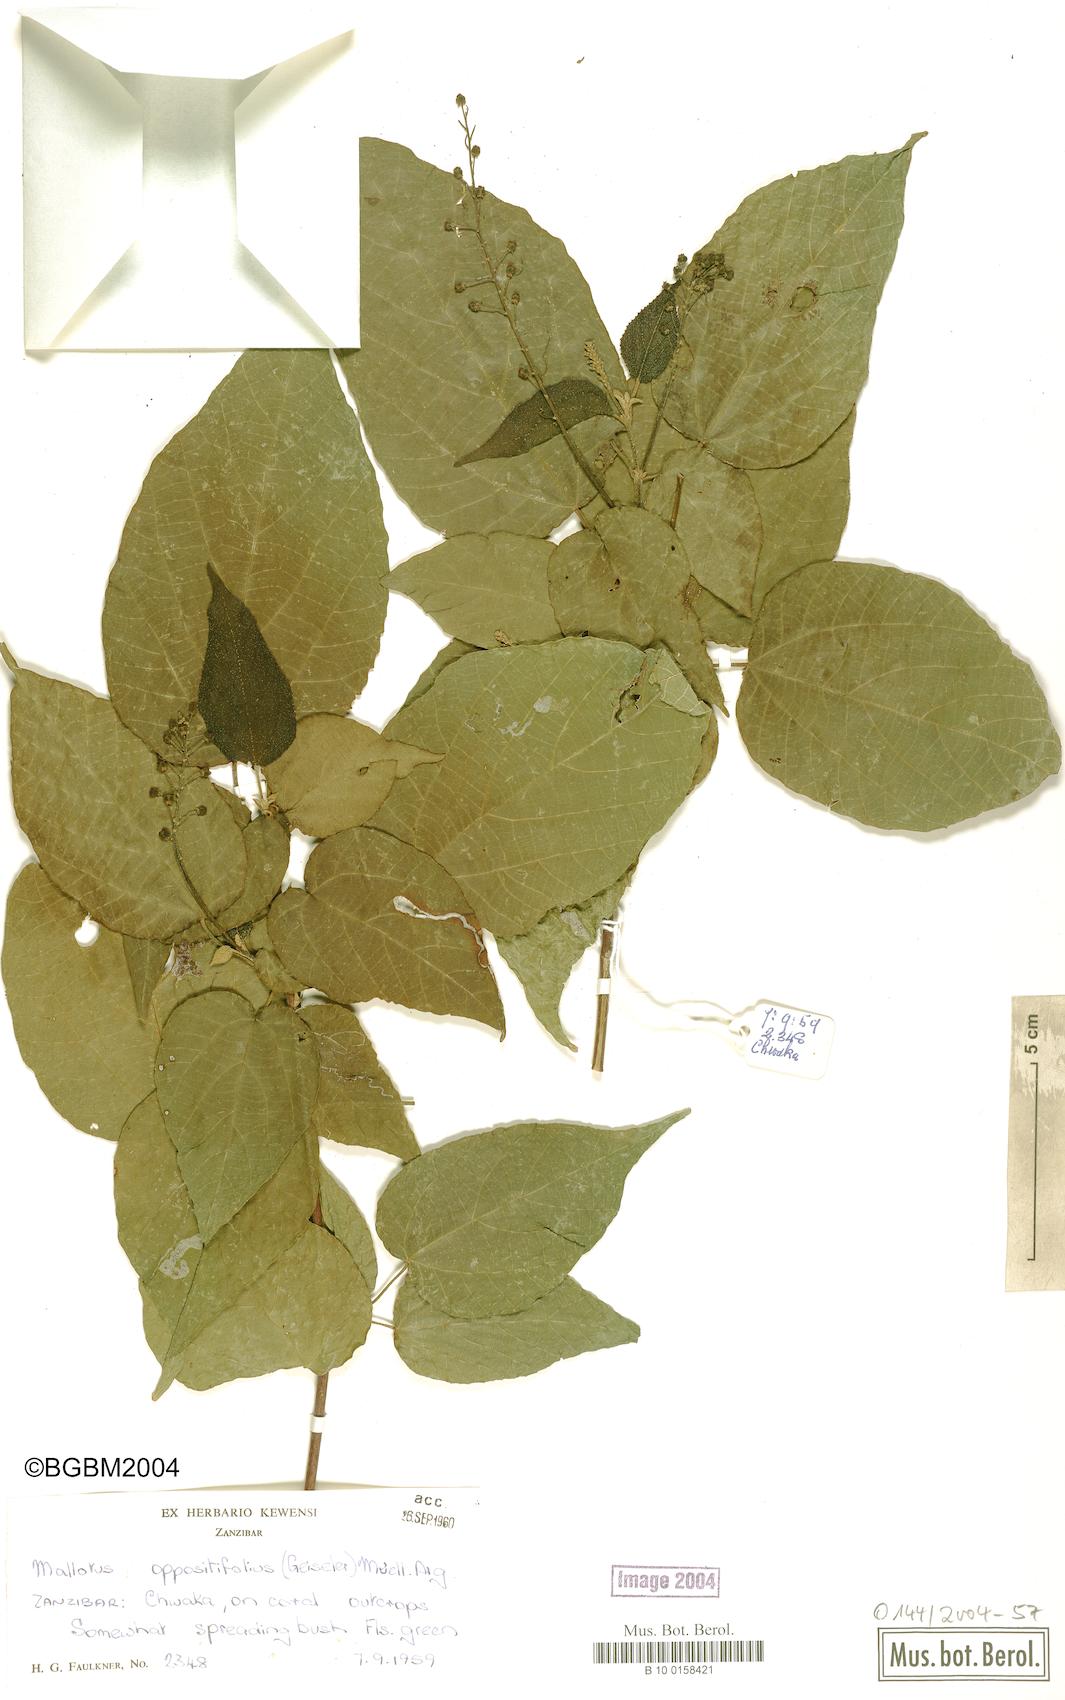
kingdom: Plantae
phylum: Tracheophyta
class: Magnoliopsida
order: Malpighiales
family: Euphorbiaceae
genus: Mallotus
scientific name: Mallotus oppositifolius
